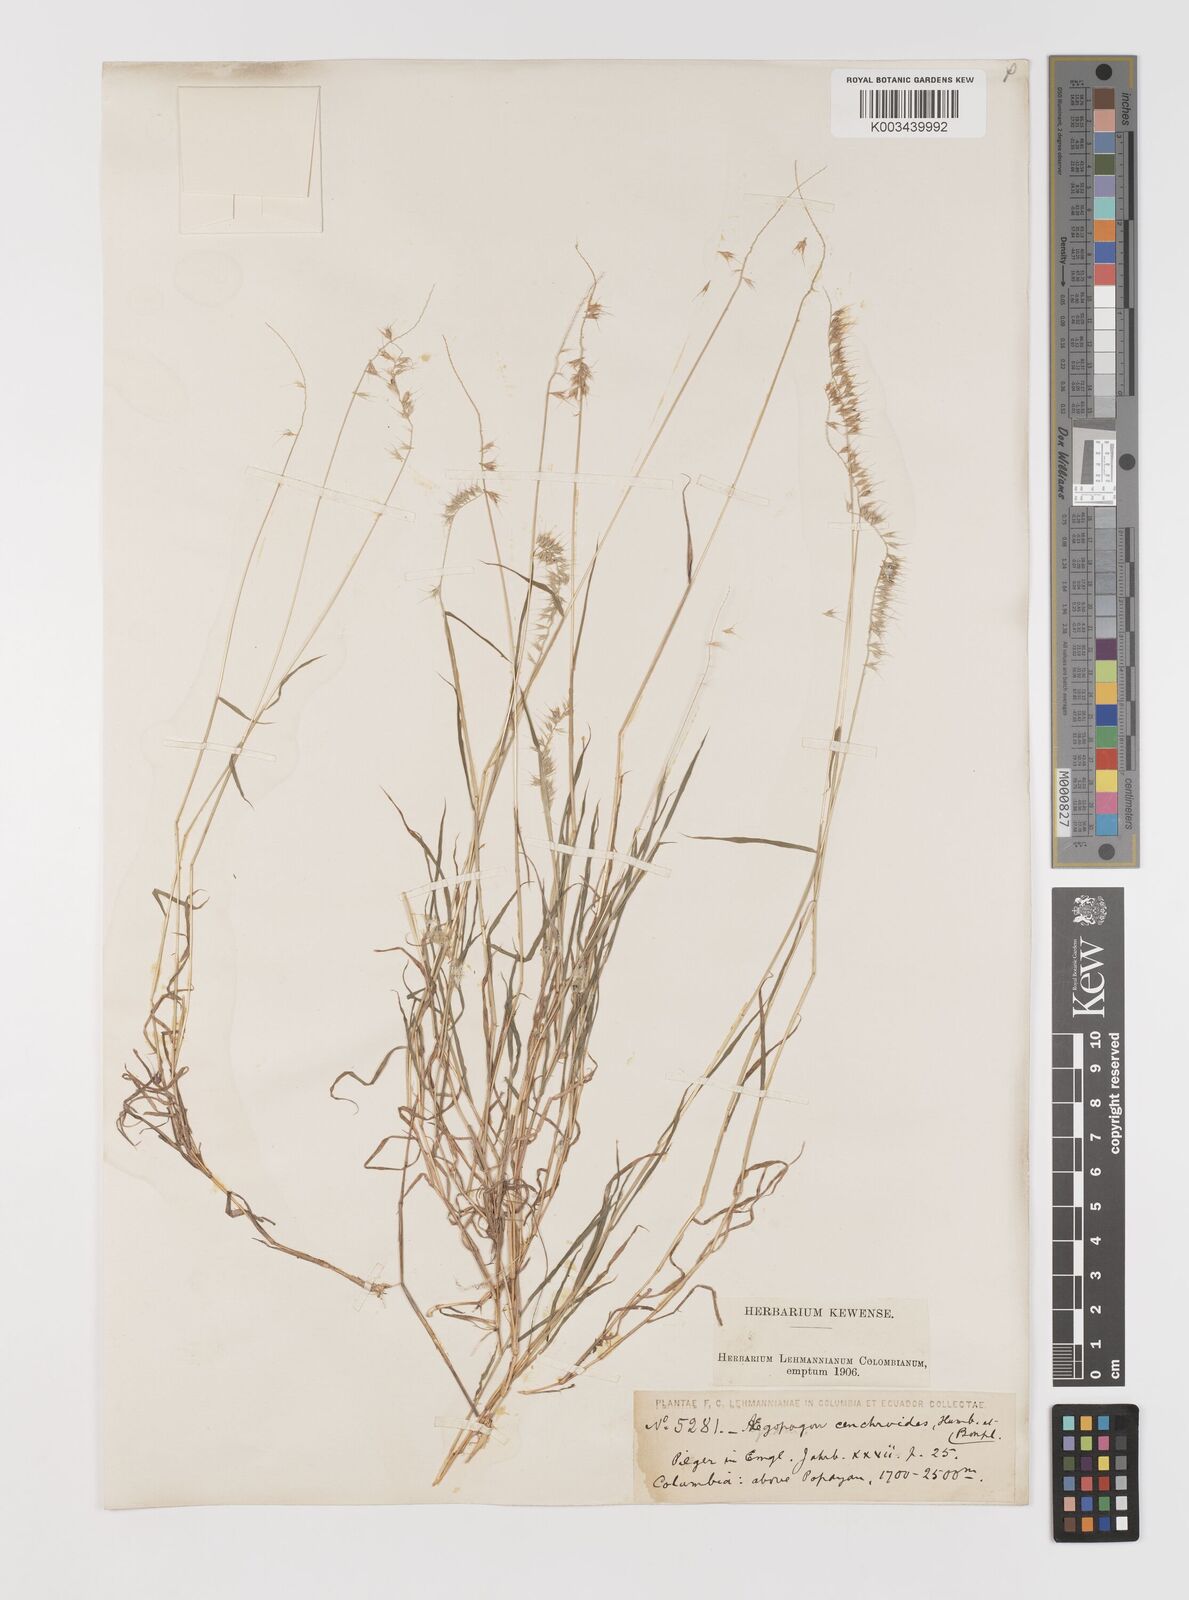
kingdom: Plantae
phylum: Tracheophyta
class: Liliopsida
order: Poales
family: Poaceae
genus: Muhlenbergia
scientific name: Muhlenbergia cenchroides
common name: Relaxgrass
